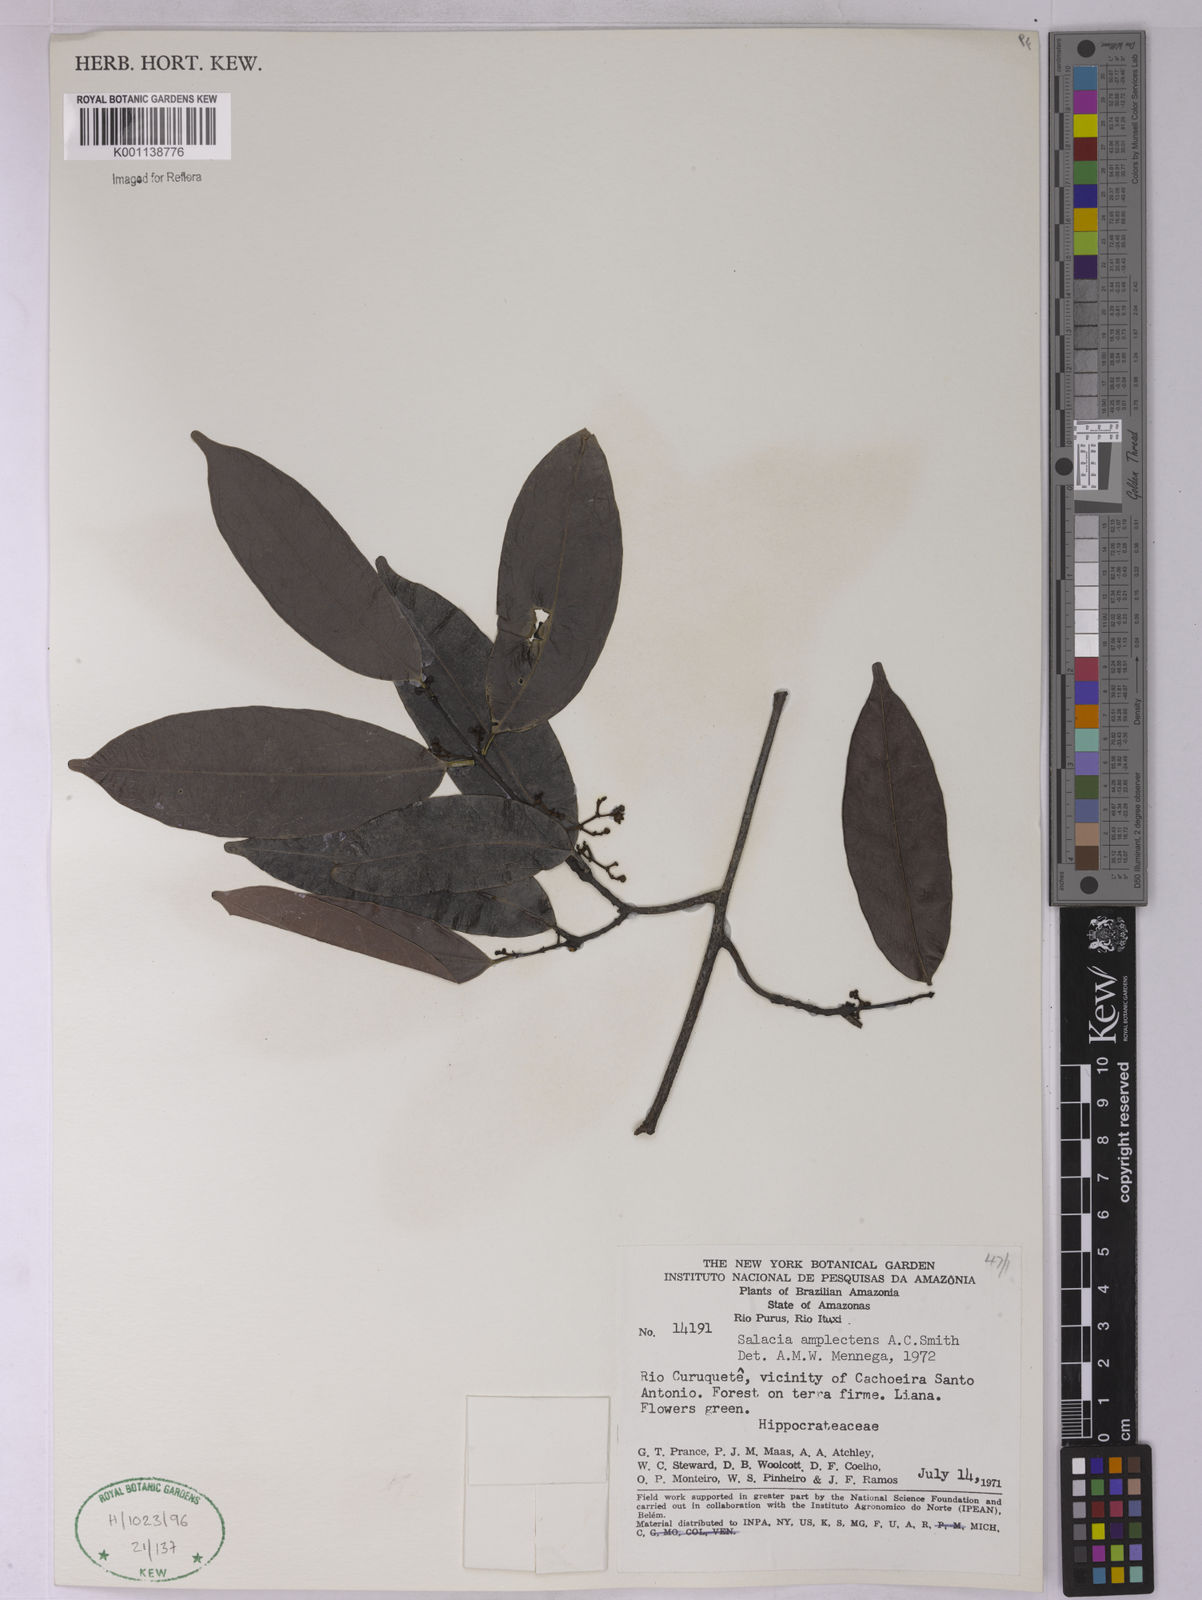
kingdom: Plantae
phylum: Tracheophyta
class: Magnoliopsida
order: Celastrales
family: Celastraceae
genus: Salacia
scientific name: Salacia amplectens
